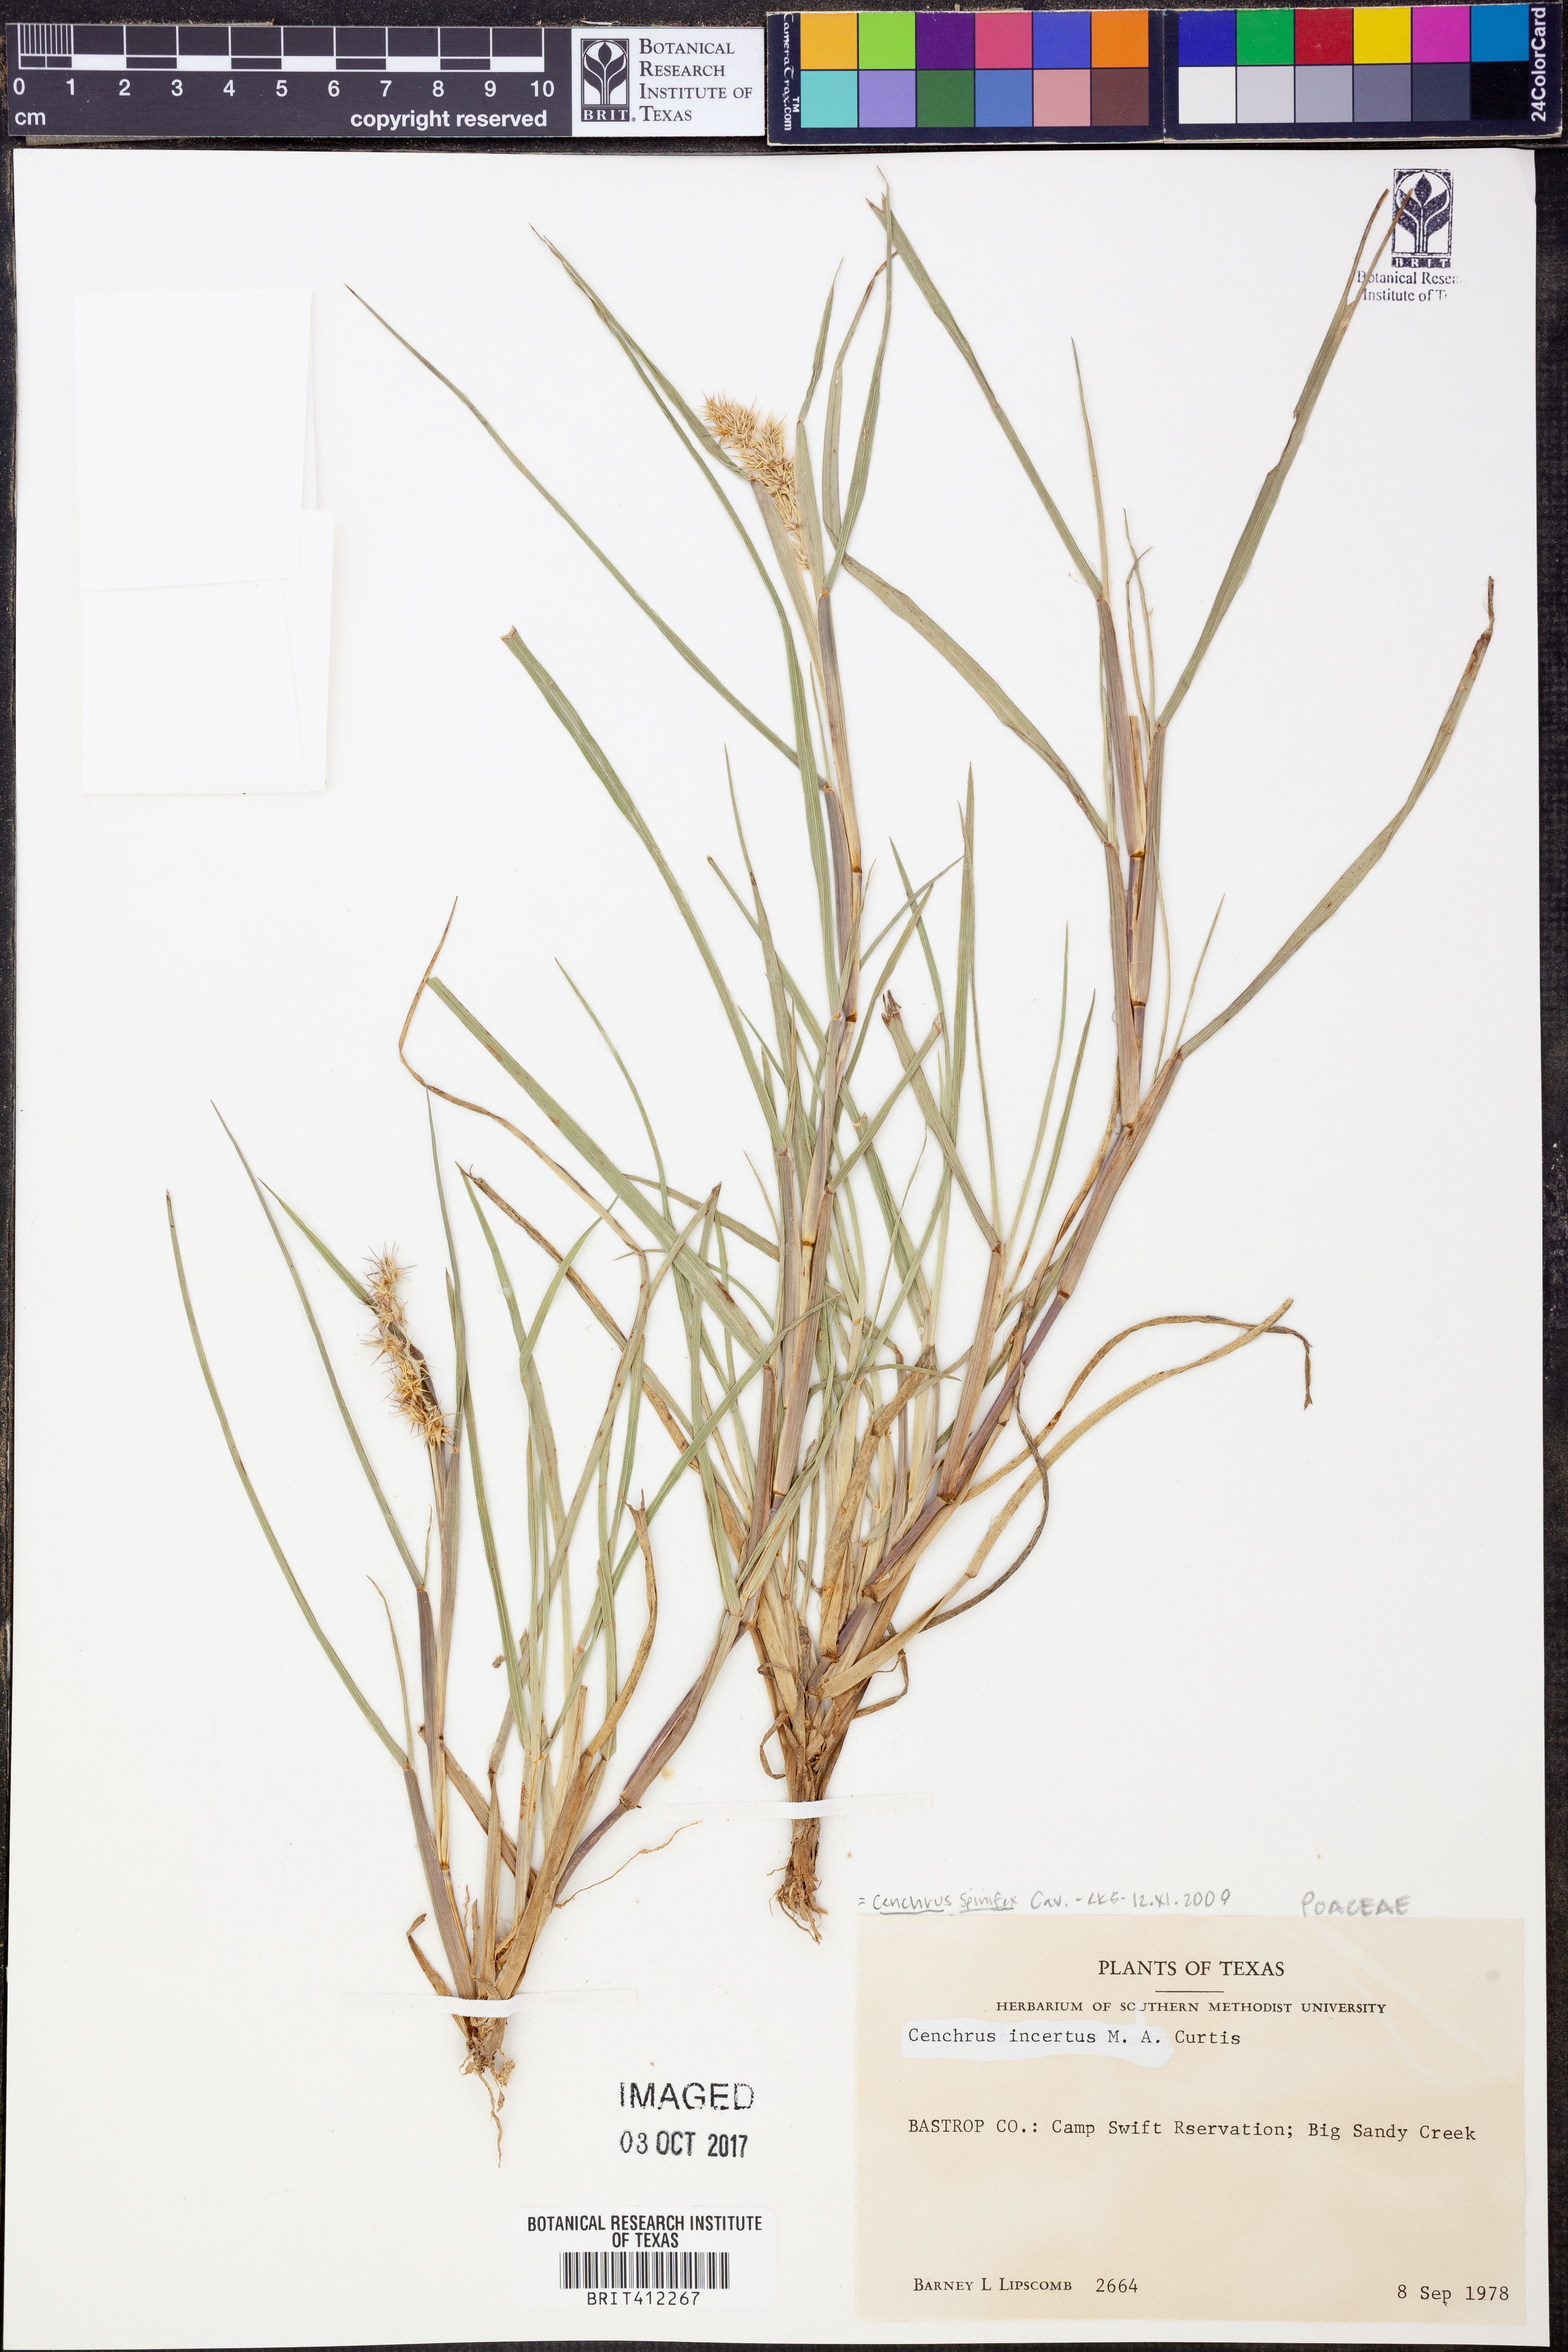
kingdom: Plantae
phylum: Tracheophyta
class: Liliopsida
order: Poales
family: Poaceae
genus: Cenchrus
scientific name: Cenchrus spinifex
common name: Coast sandbur
